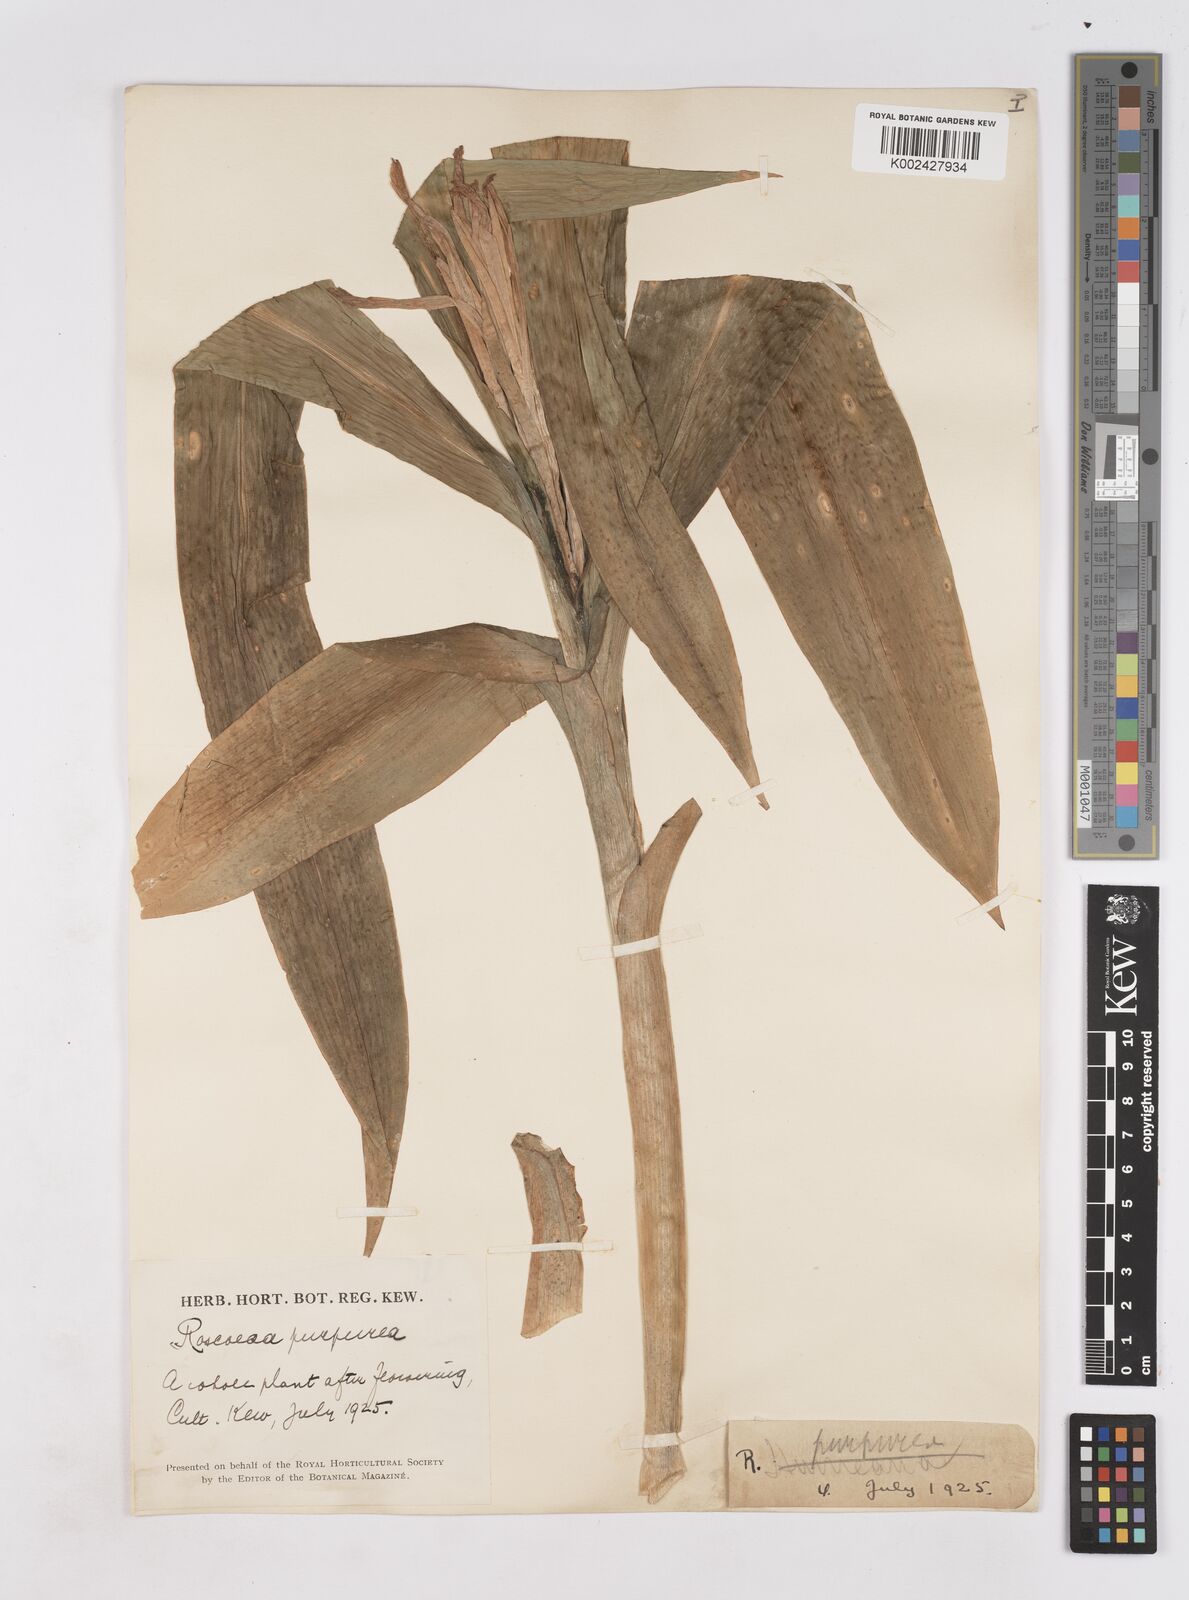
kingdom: Plantae
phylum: Tracheophyta
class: Liliopsida
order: Zingiberales
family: Zingiberaceae
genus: Roscoea
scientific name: Roscoea humeana
